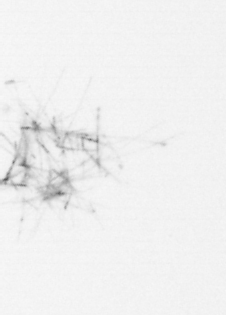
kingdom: Chromista
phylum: Ochrophyta
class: Bacillariophyceae
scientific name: Bacillariophyceae
